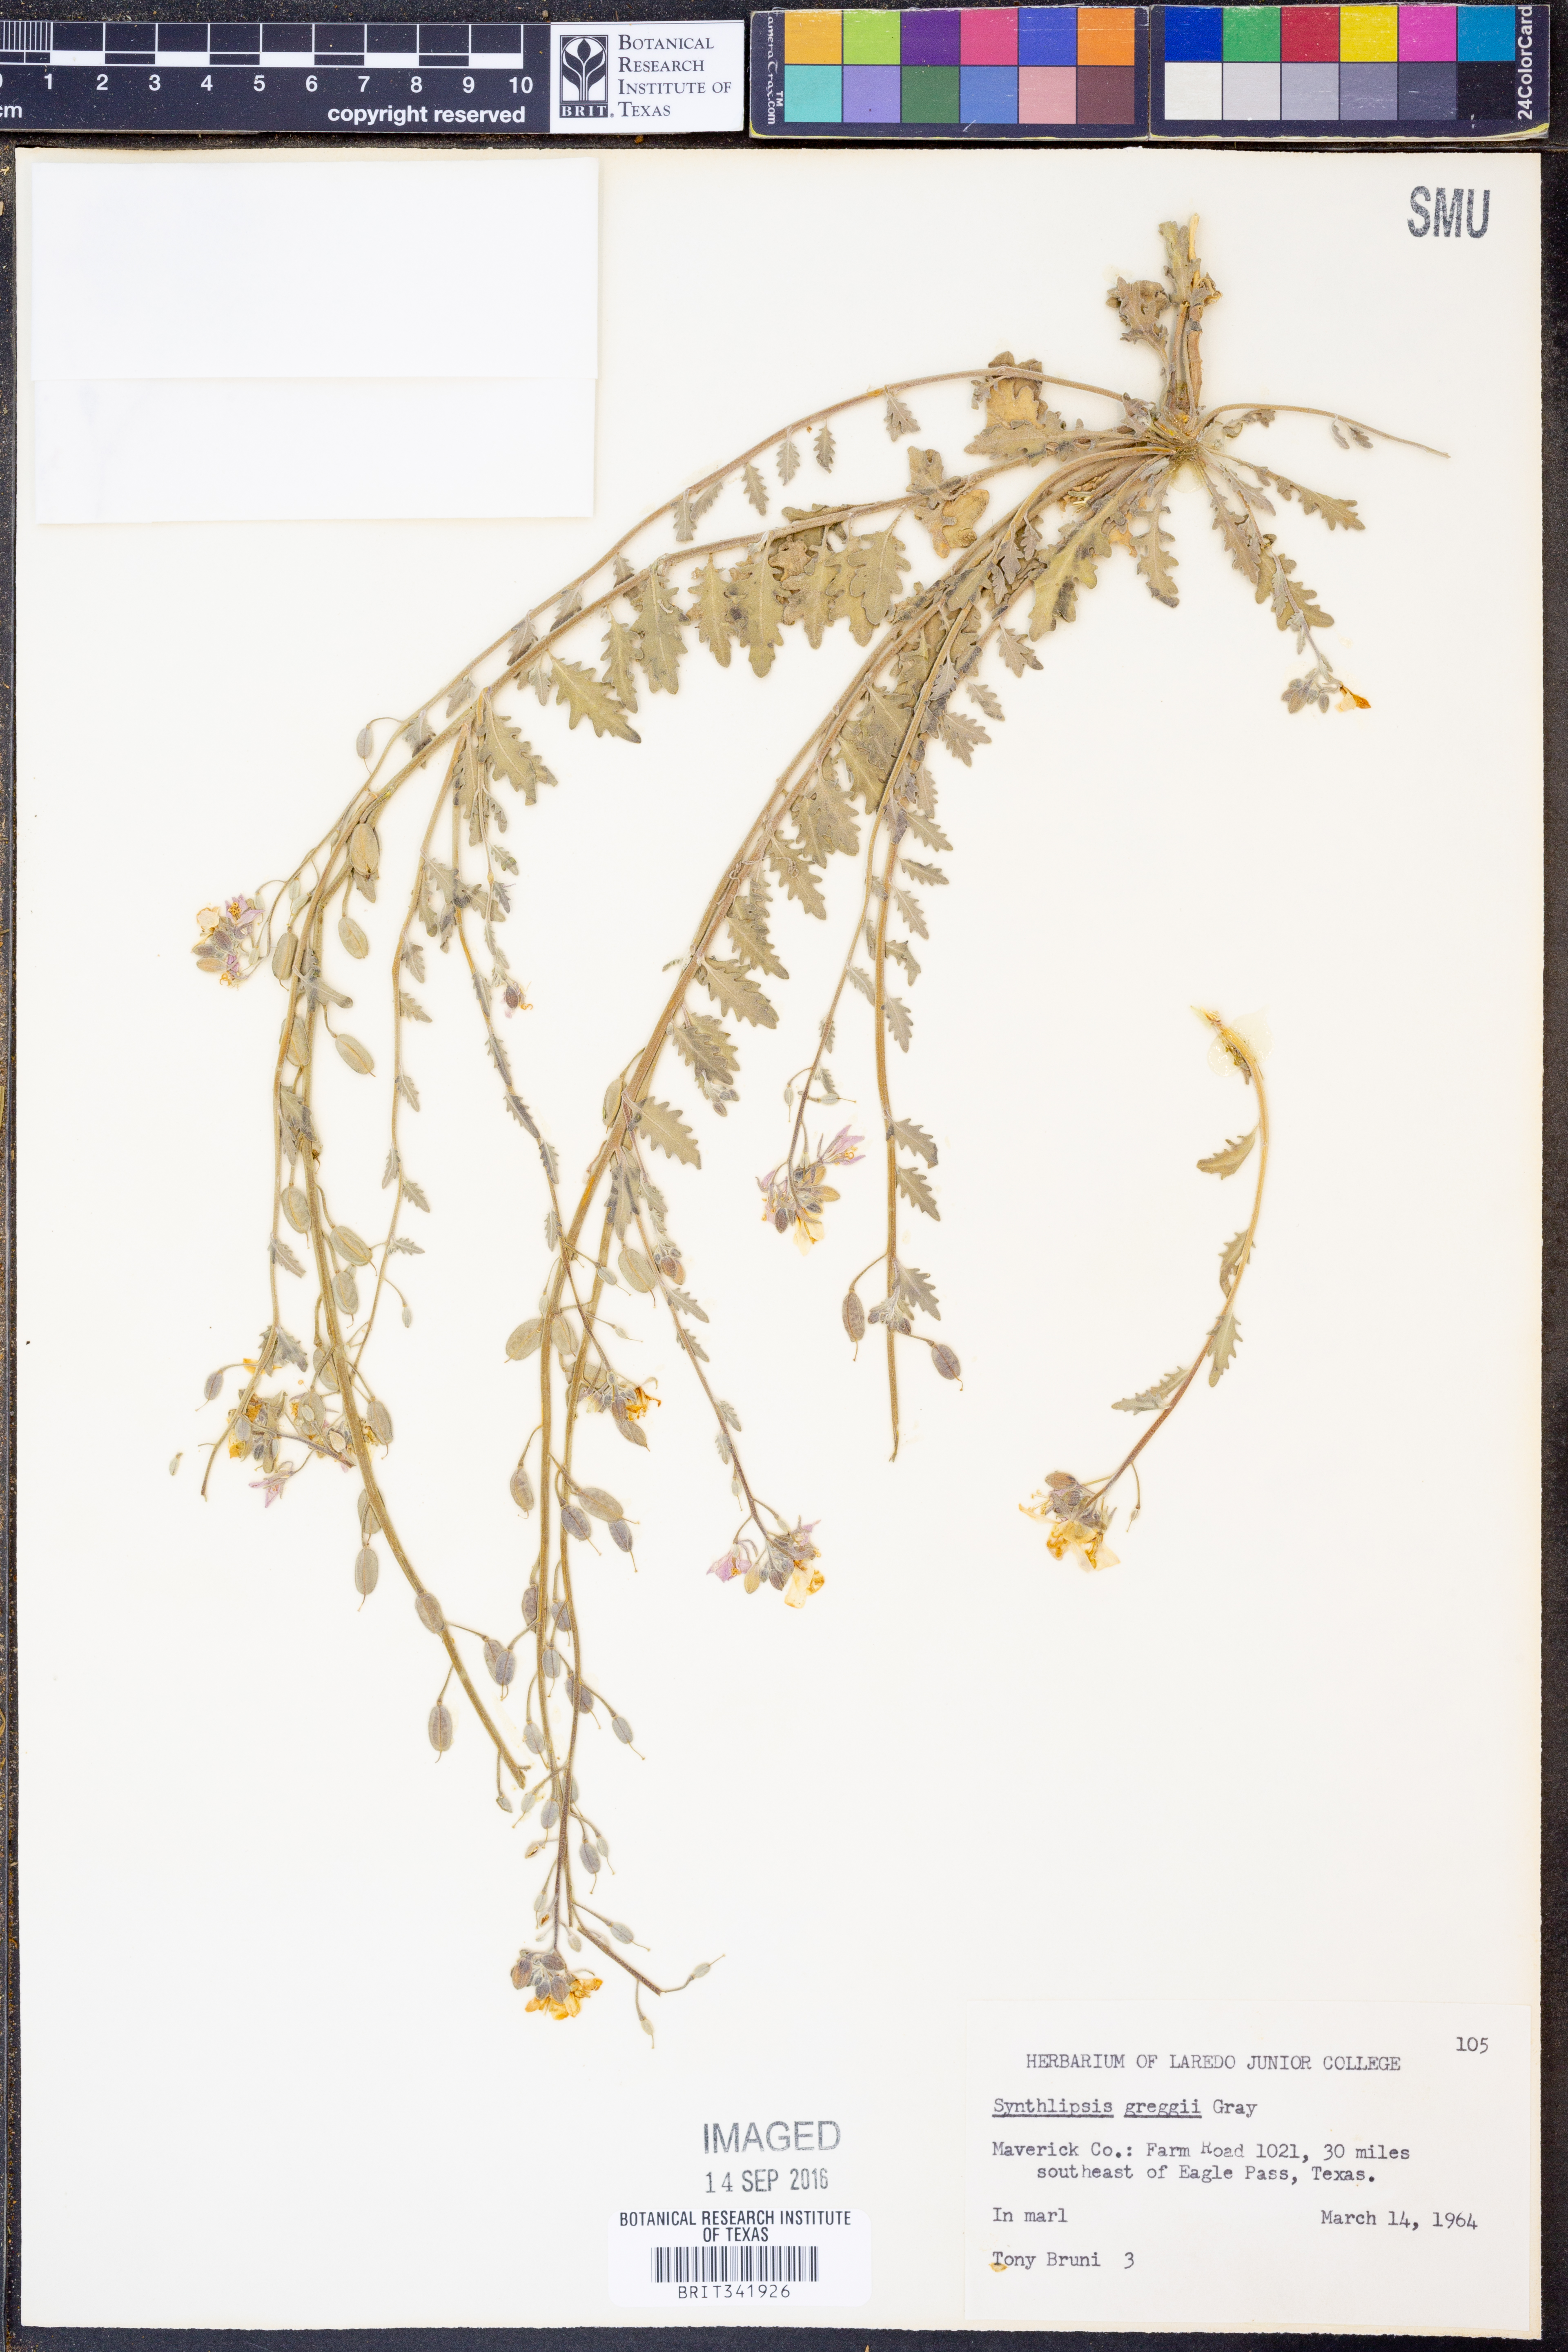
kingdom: Plantae
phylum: Tracheophyta
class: Magnoliopsida
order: Brassicales
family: Brassicaceae
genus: Synthlipsis
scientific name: Synthlipsis greggii
